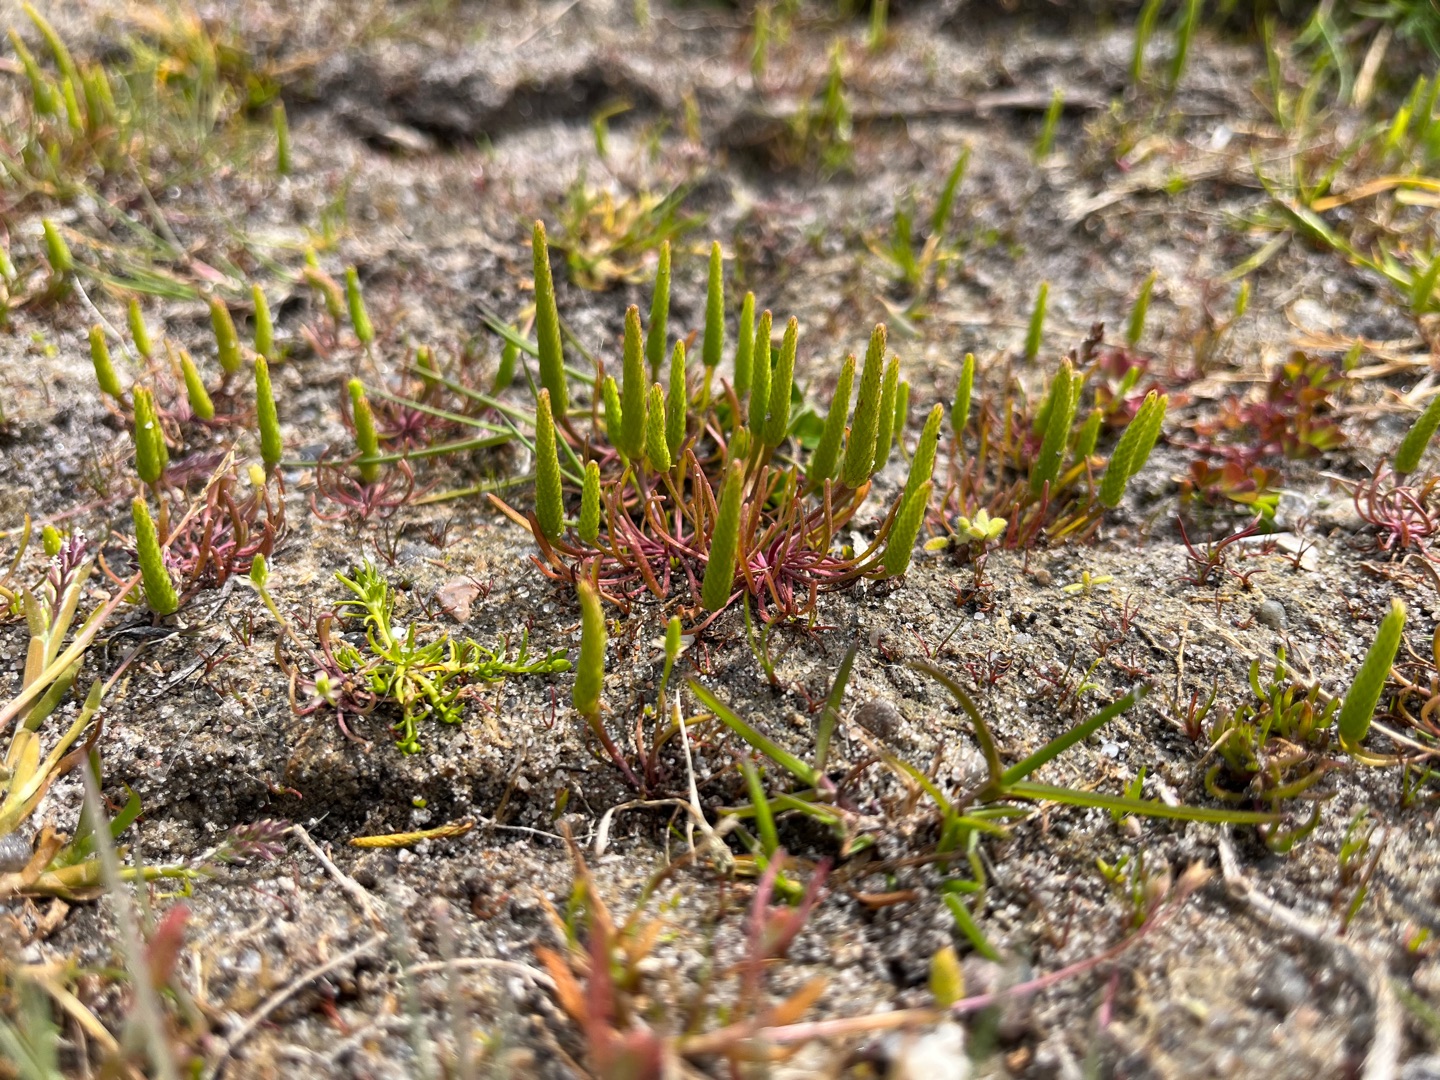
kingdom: Plantae
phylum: Tracheophyta
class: Magnoliopsida
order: Ranunculales
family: Ranunculaceae
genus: Myosurus
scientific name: Myosurus minimus
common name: Musehale
